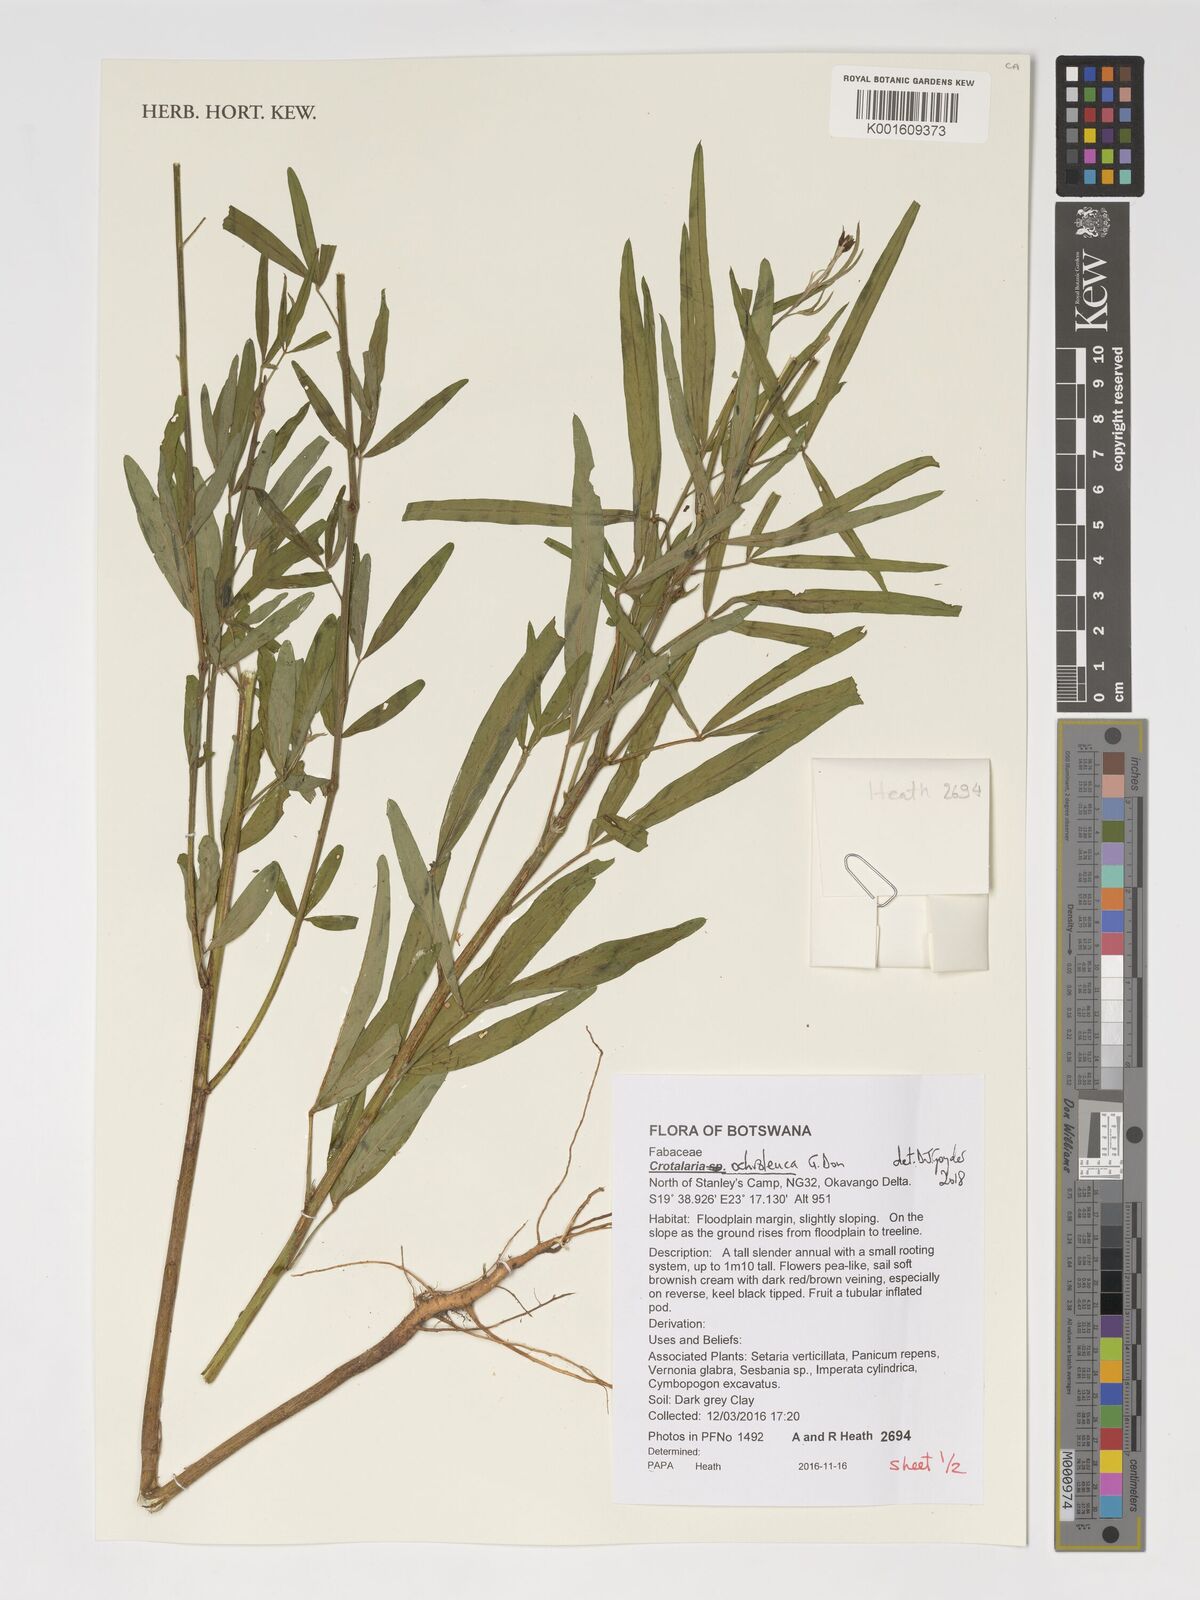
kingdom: Plantae
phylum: Tracheophyta
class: Magnoliopsida
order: Fabales
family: Fabaceae
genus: Crotalaria
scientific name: Crotalaria ochroleuca
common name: Slender leaf rattlebox
